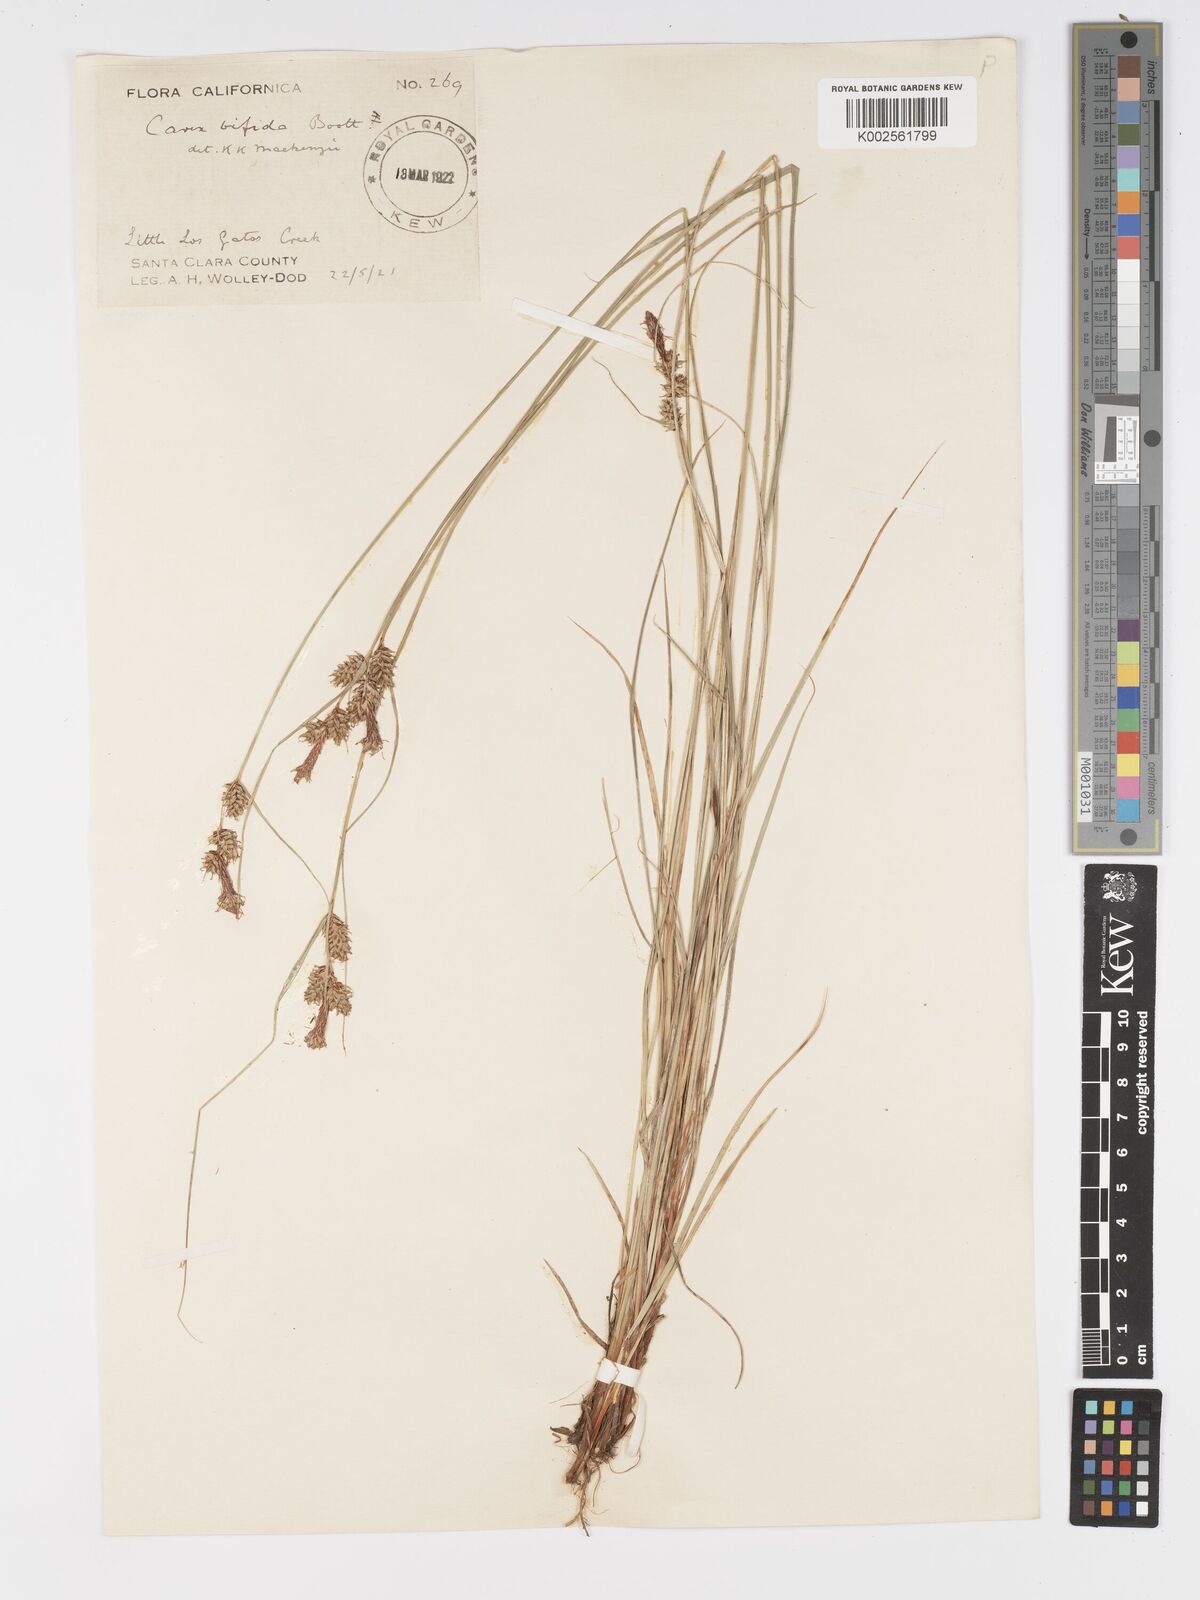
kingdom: Plantae
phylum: Tracheophyta
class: Liliopsida
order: Poales
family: Cyperaceae
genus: Carex
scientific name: Carex serratodens
